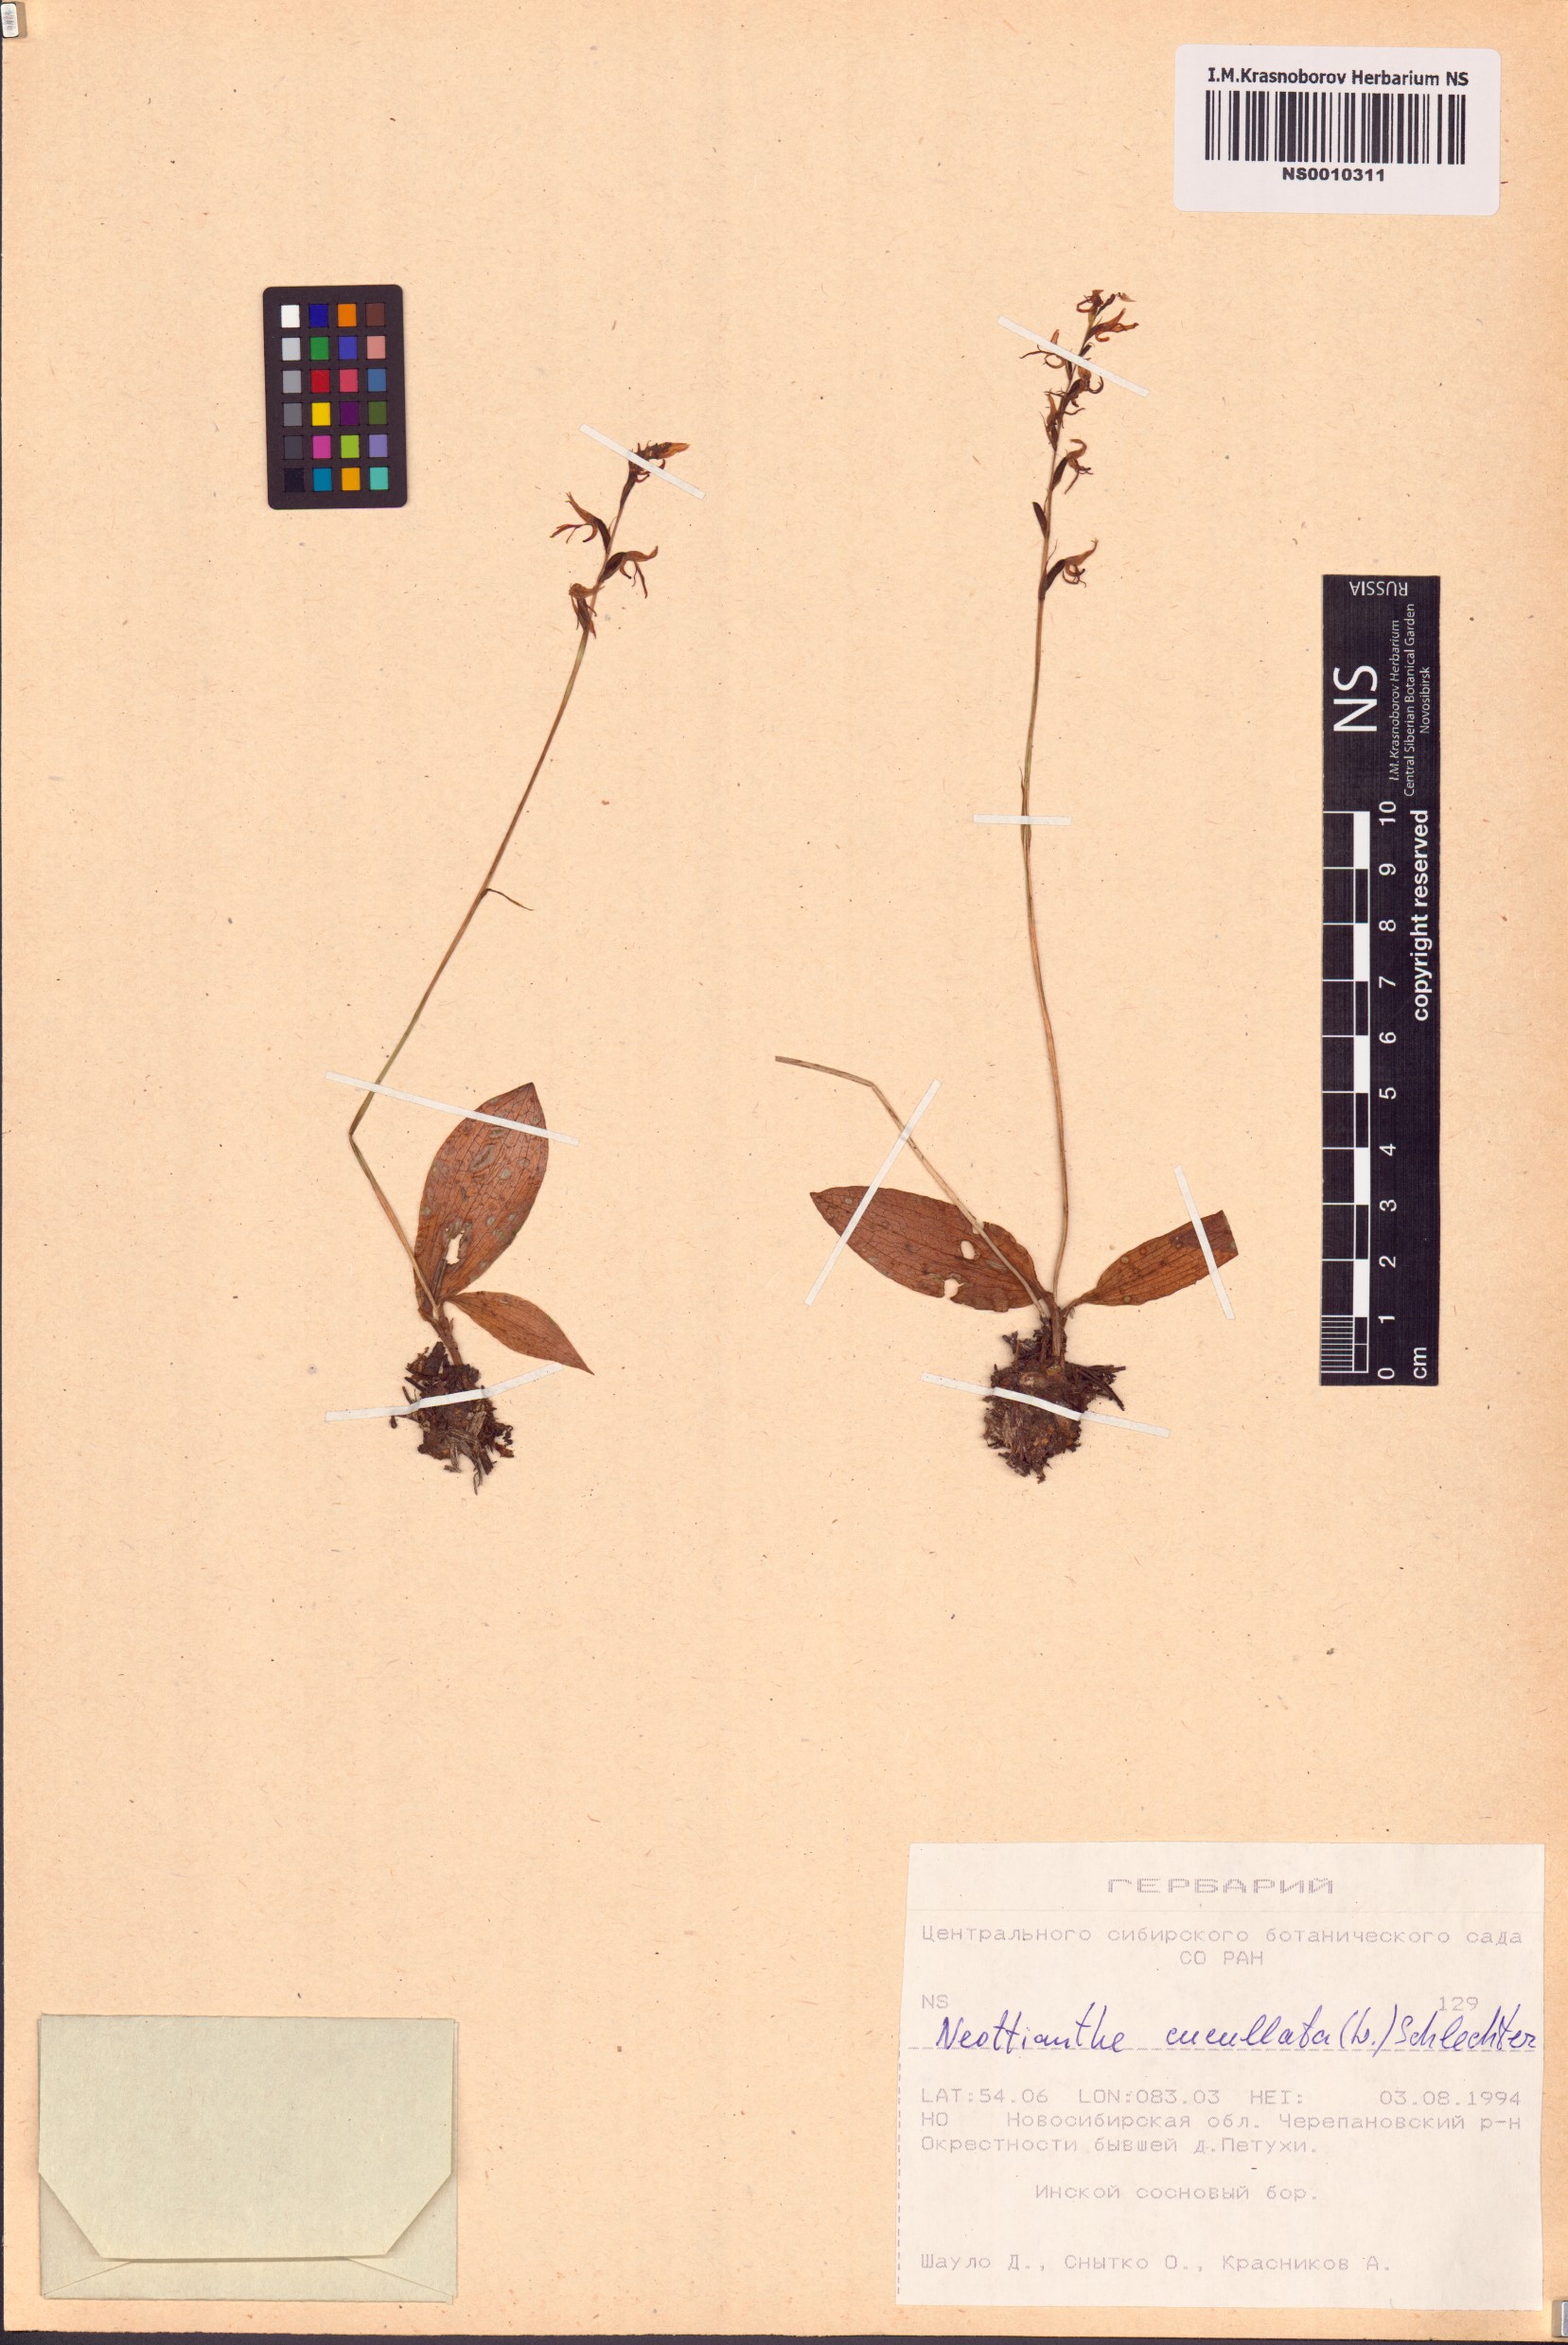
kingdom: Plantae
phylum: Tracheophyta
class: Liliopsida
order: Asparagales
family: Orchidaceae
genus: Hemipilia
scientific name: Hemipilia cucullata
